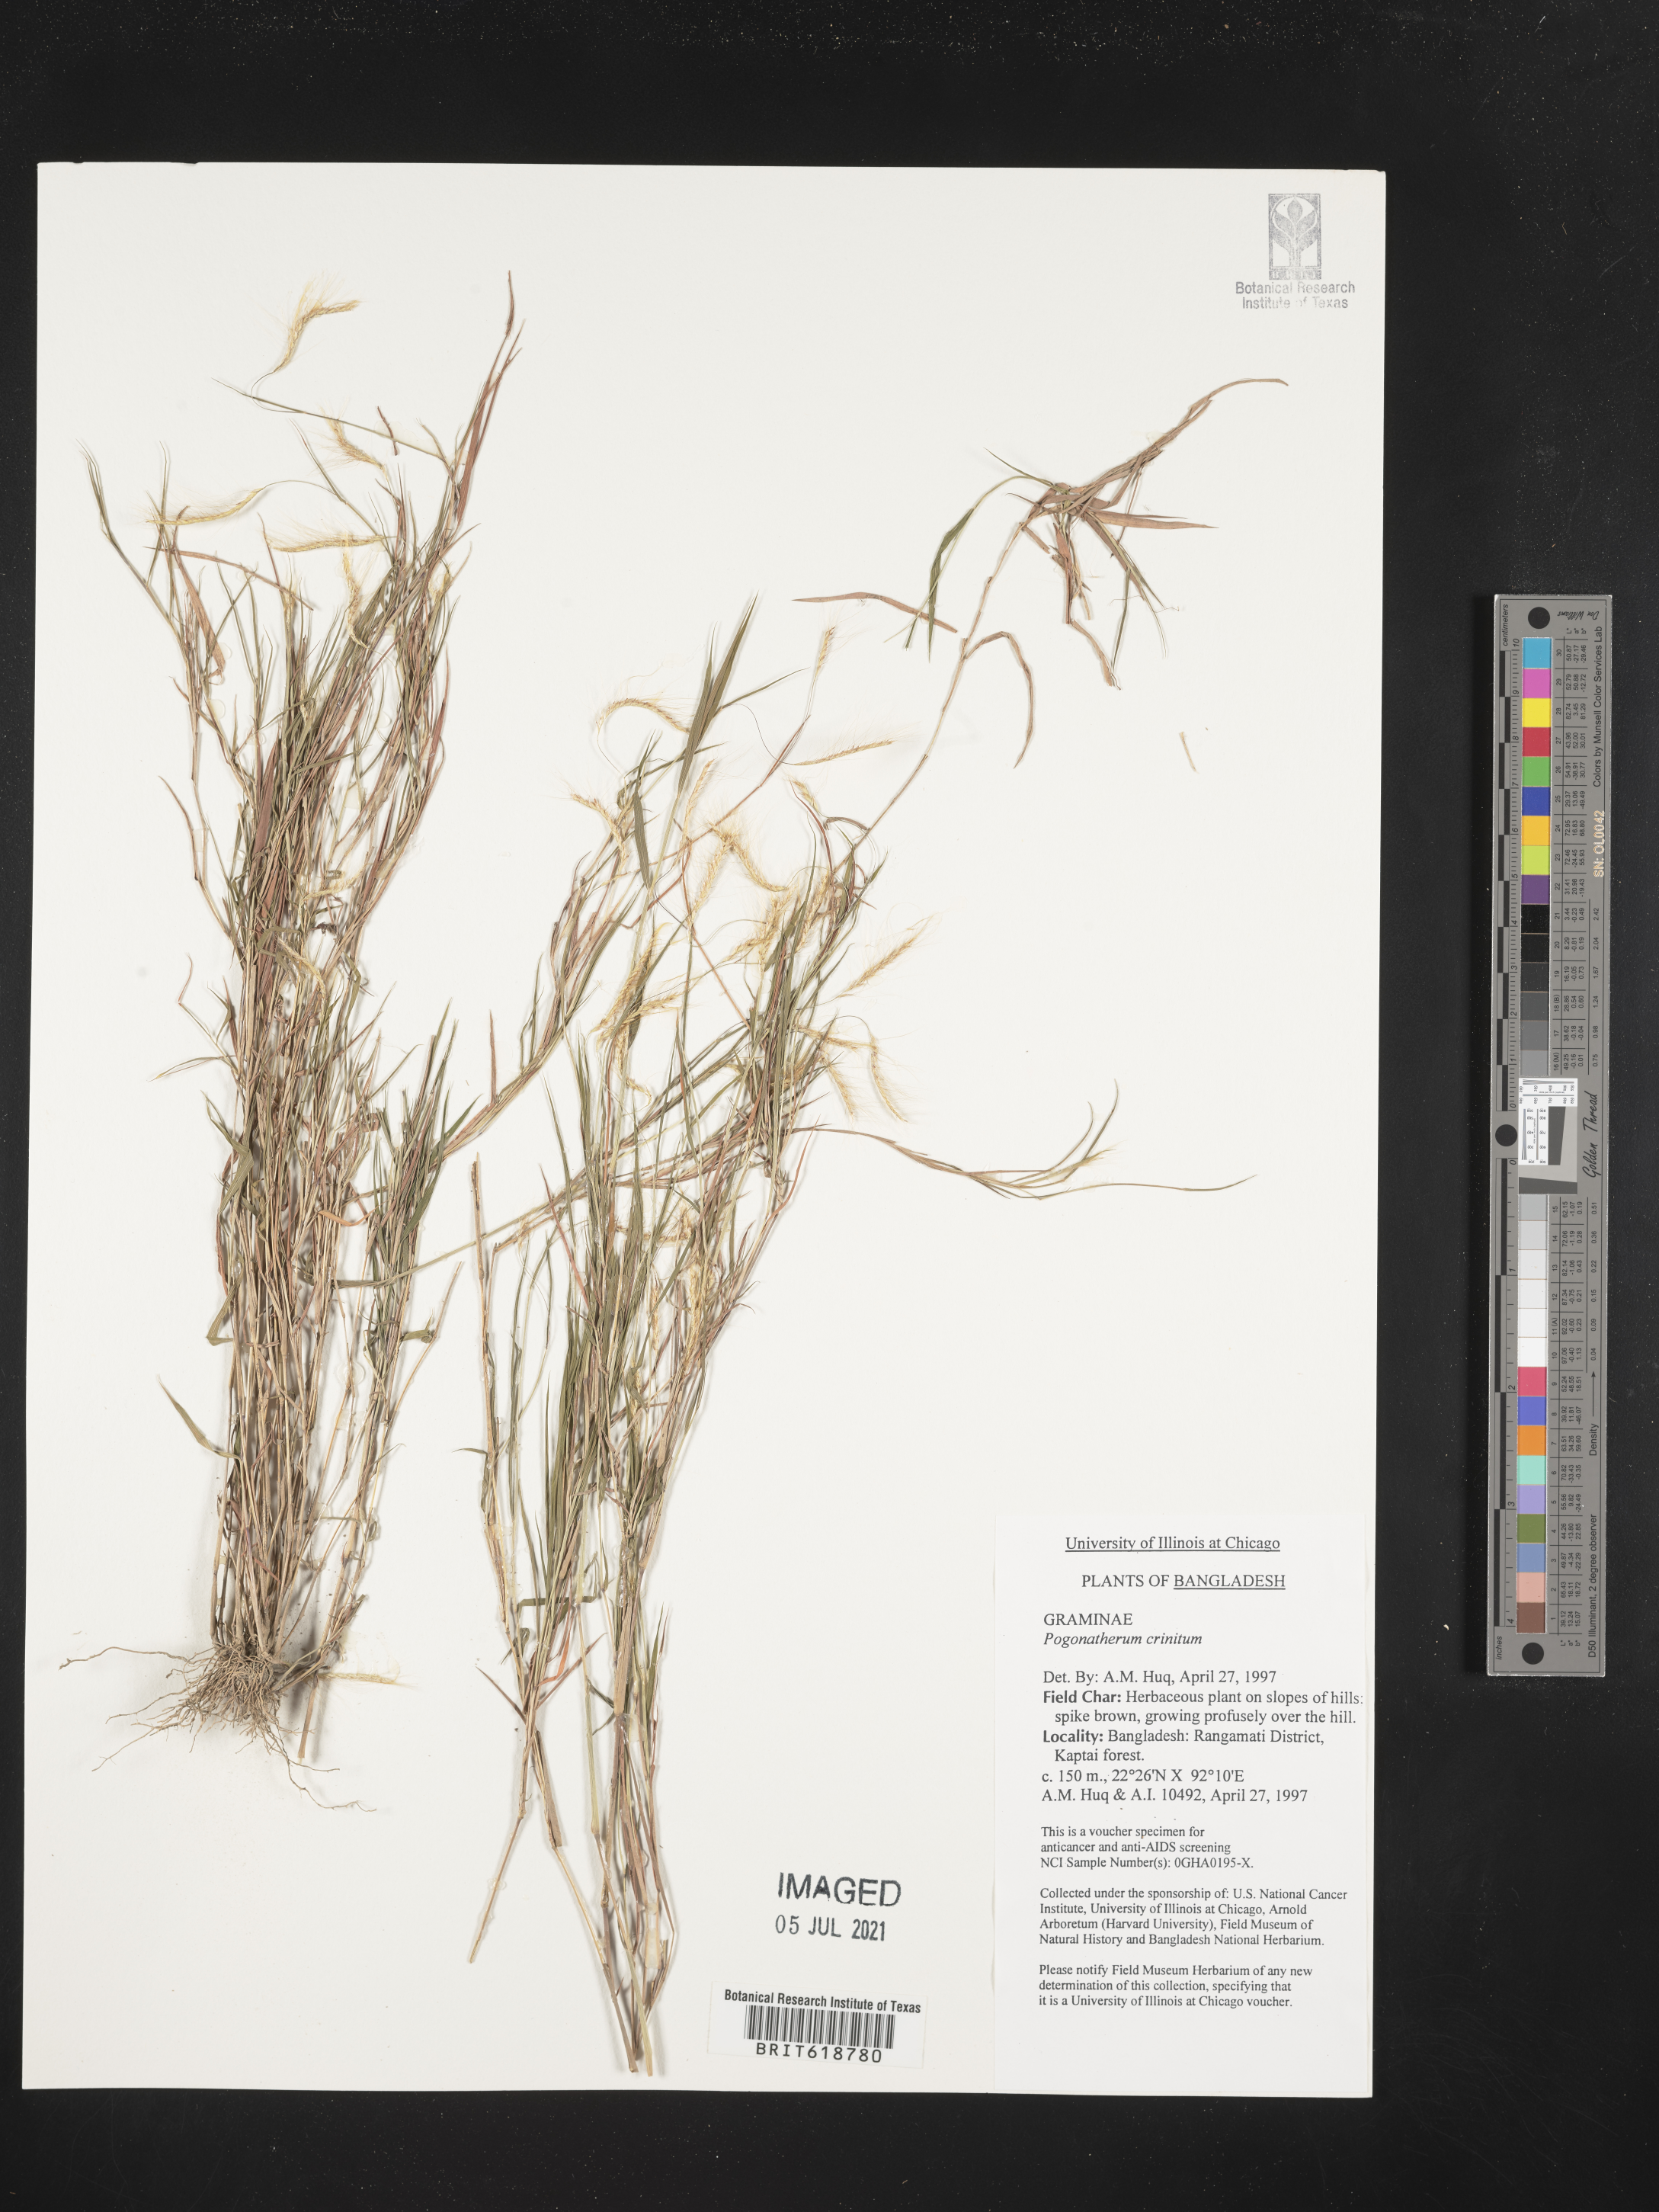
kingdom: Plantae
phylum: Tracheophyta
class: Liliopsida
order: Poales
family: Poaceae
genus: Pogonatherum
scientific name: Pogonatherum crinitum
